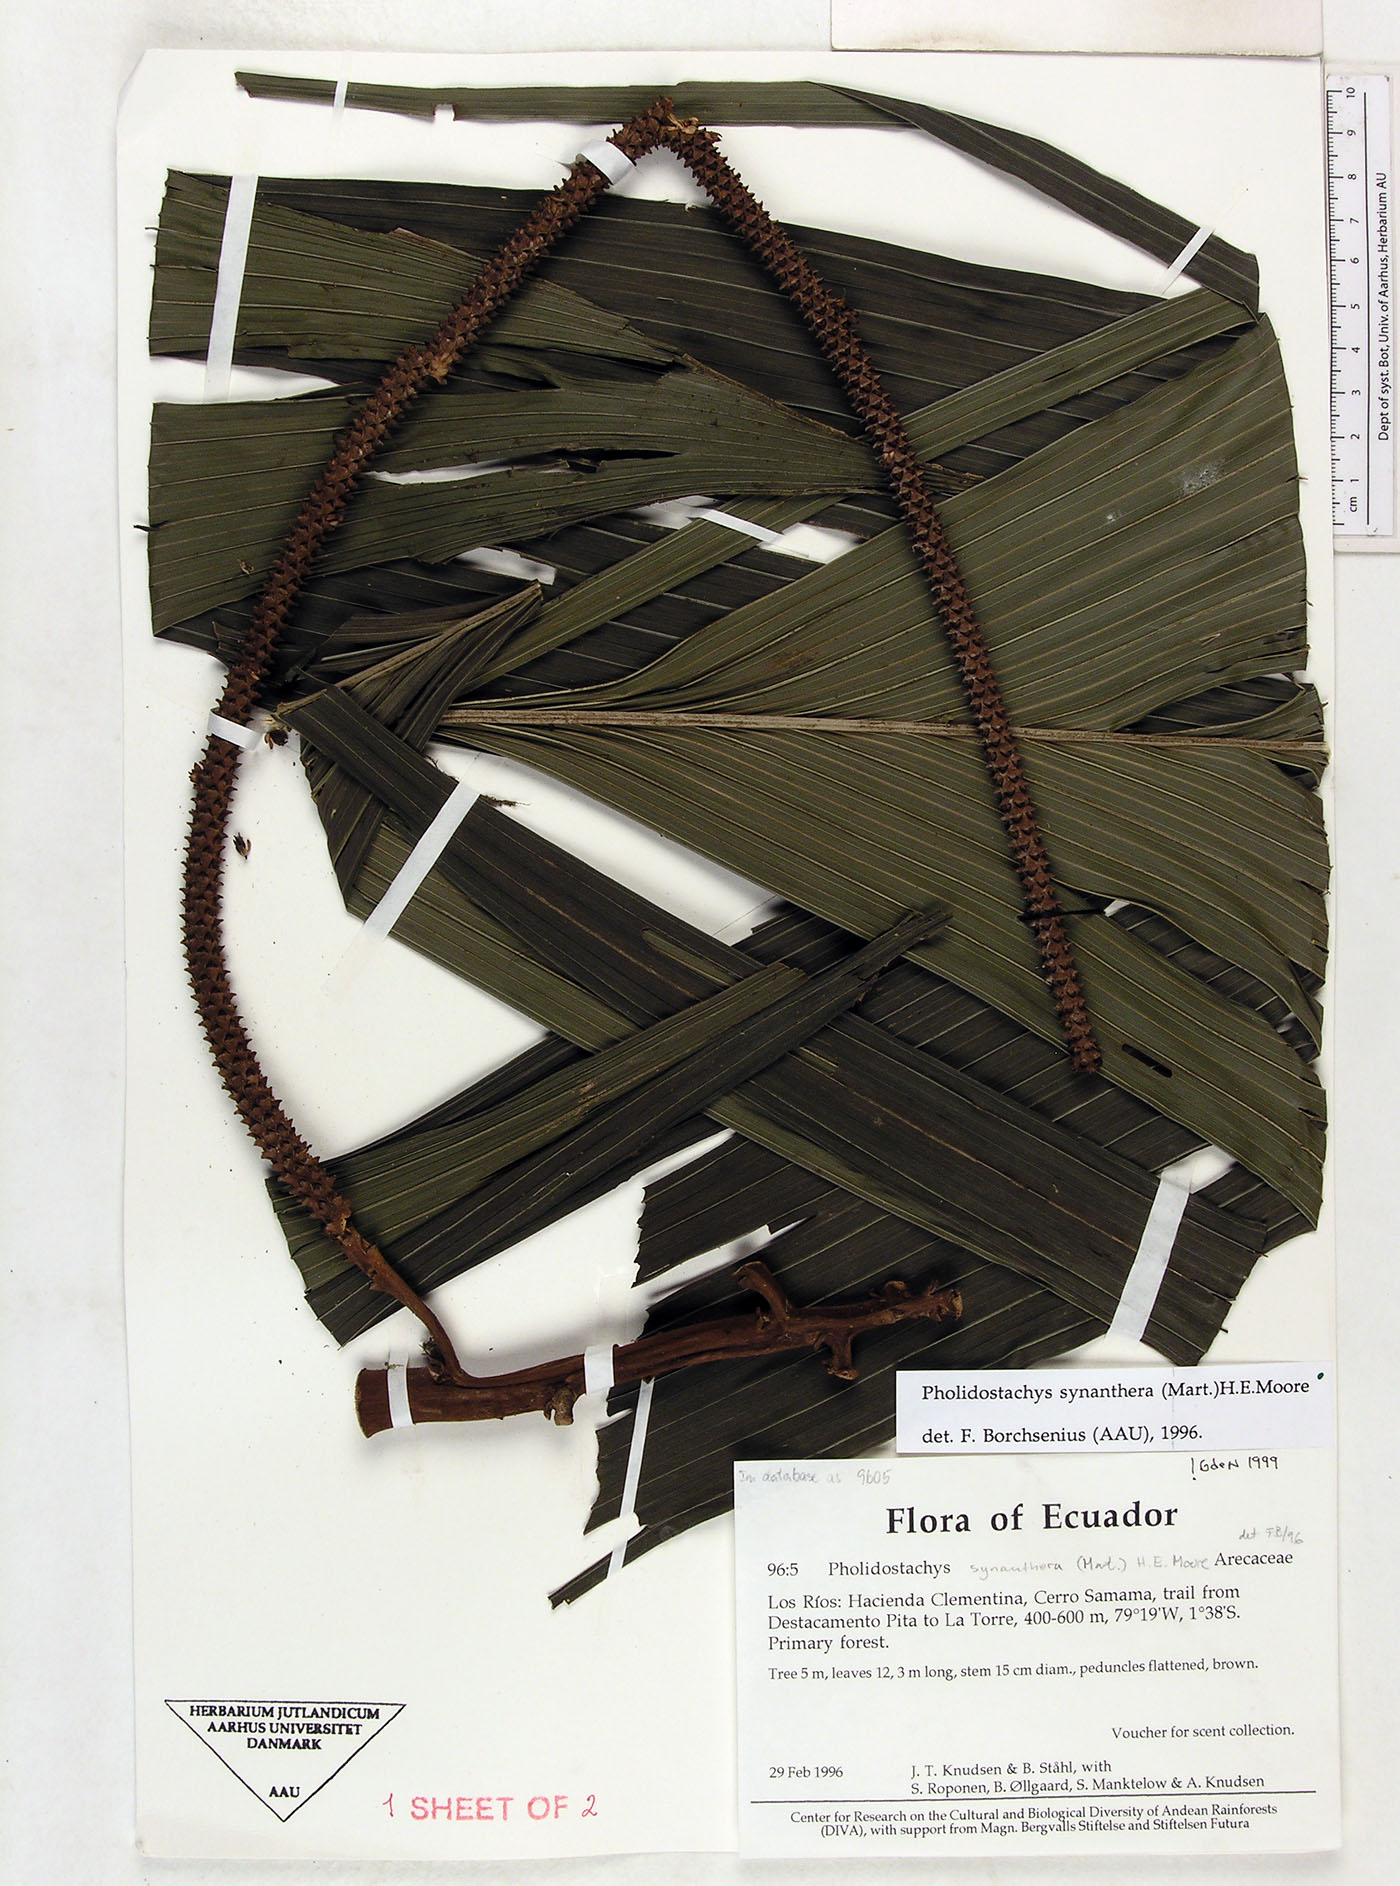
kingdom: Plantae
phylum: Tracheophyta
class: Liliopsida
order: Arecales
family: Arecaceae
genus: Pholidostachys
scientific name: Pholidostachys occidentalis
